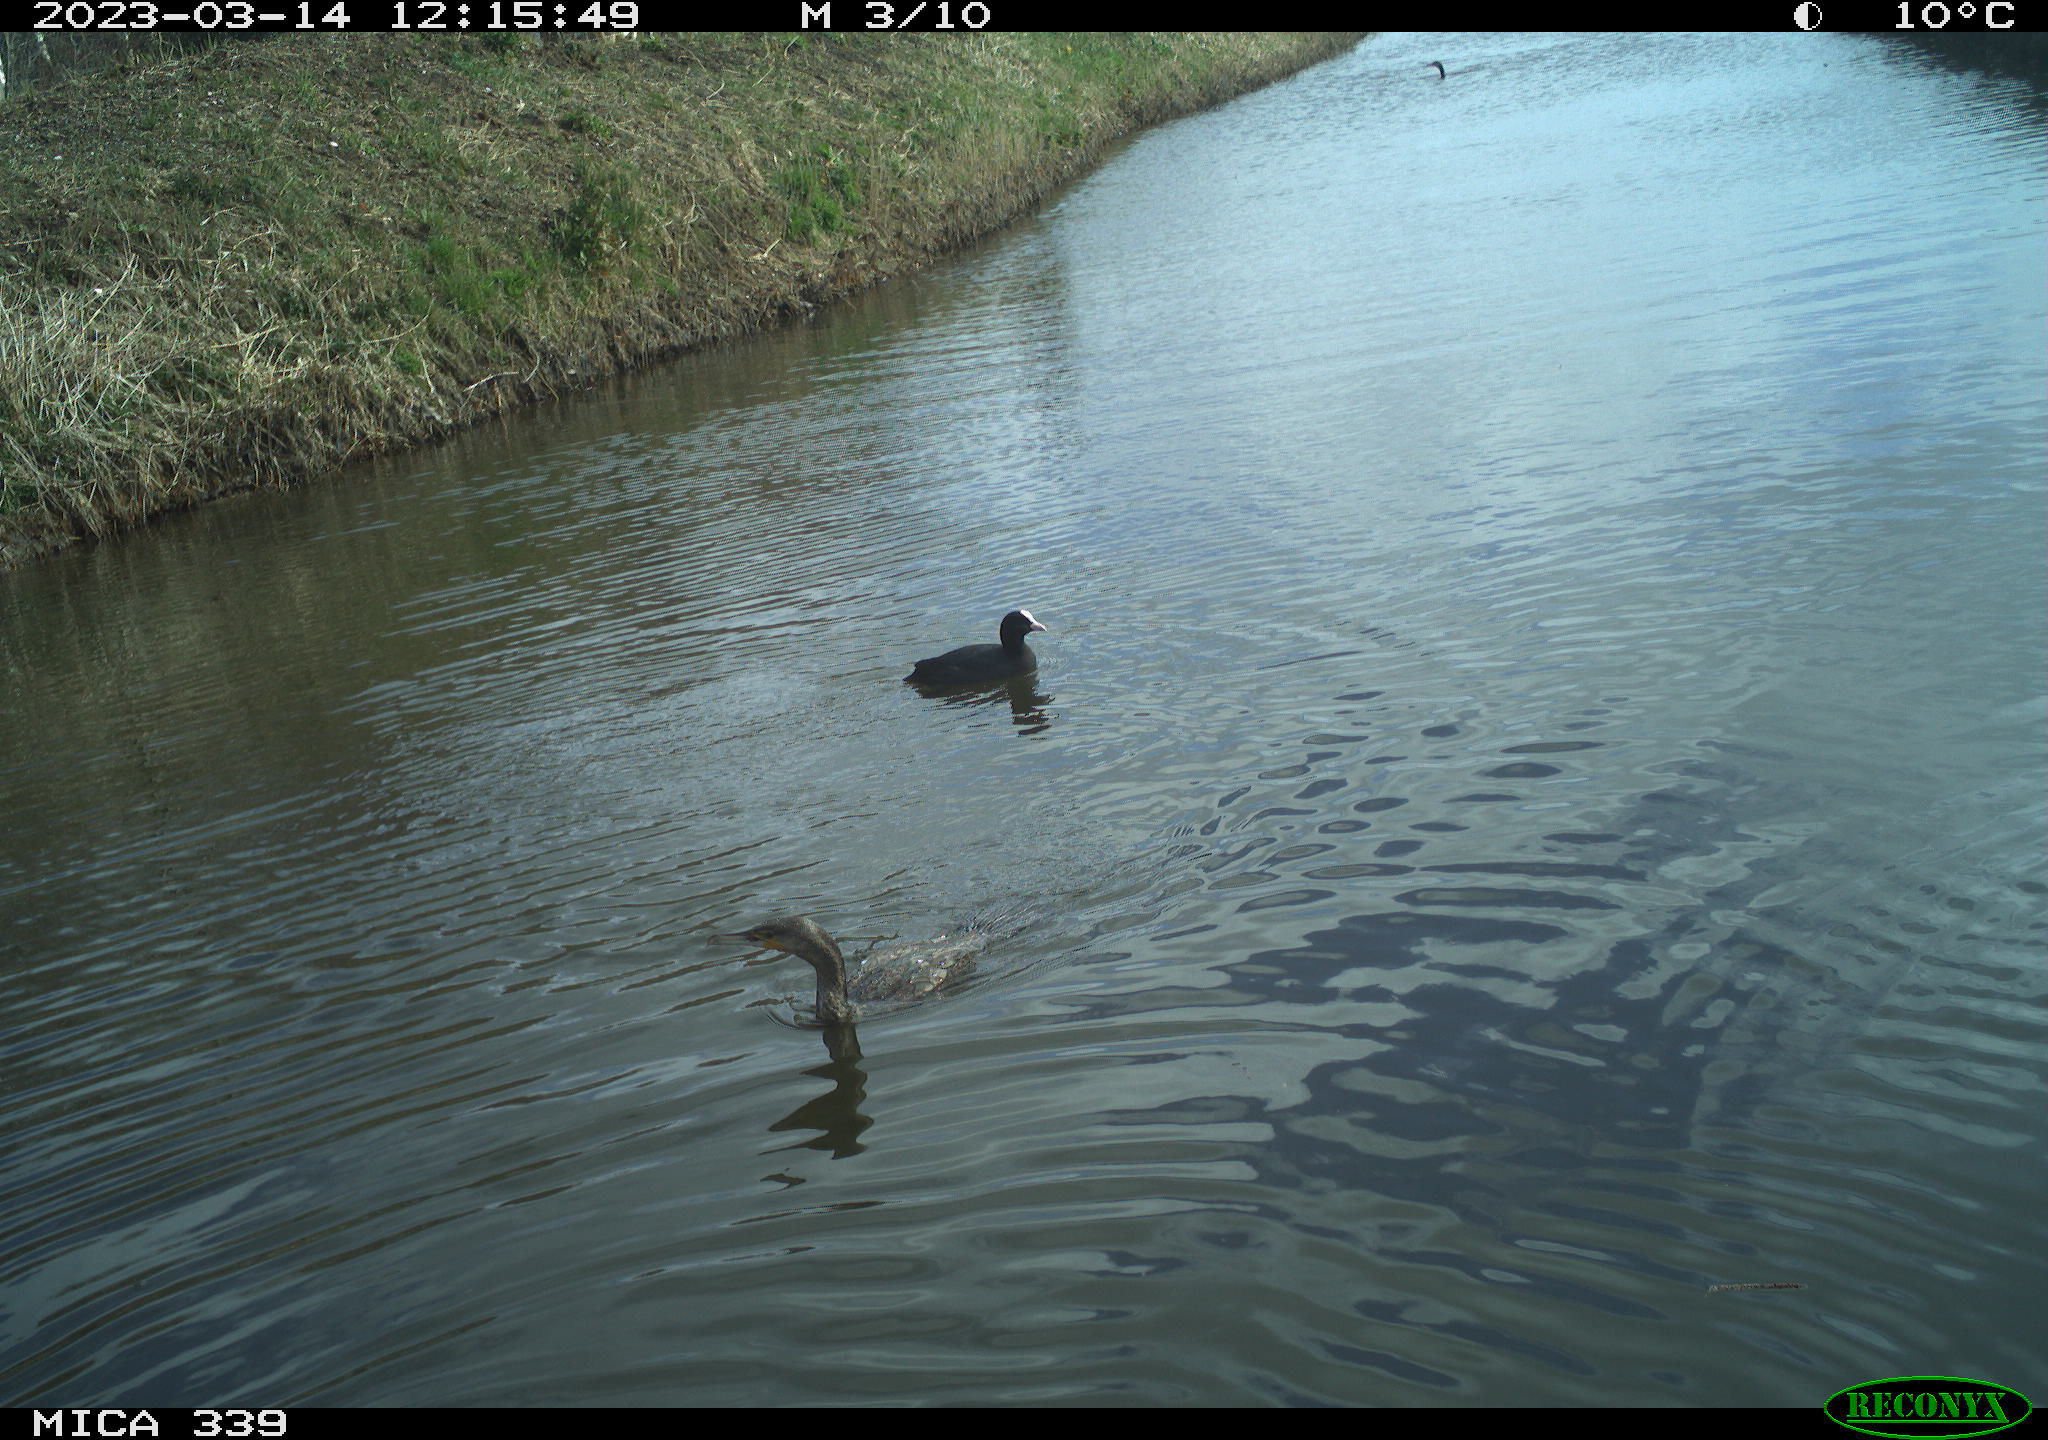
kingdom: Animalia
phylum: Chordata
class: Aves
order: Gruiformes
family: Rallidae
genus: Fulica
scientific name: Fulica atra
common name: Eurasian coot
